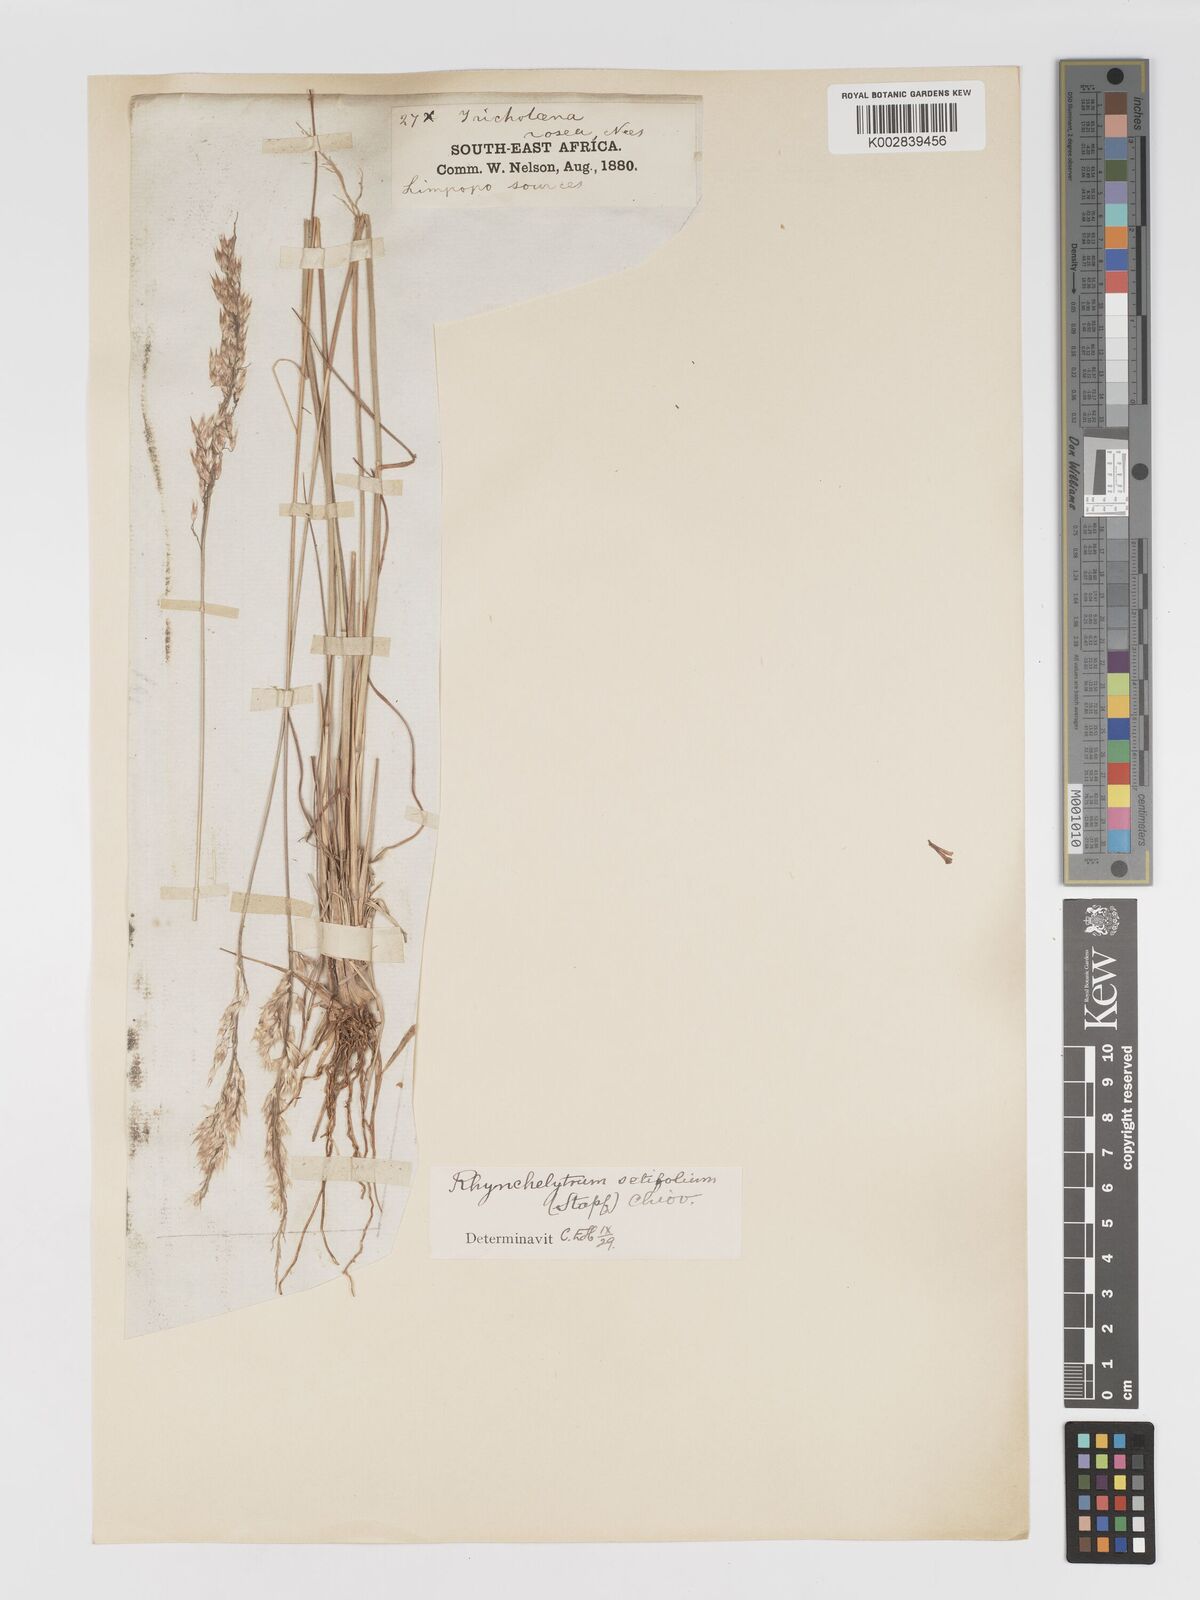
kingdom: Plantae
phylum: Tracheophyta
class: Liliopsida
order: Poales
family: Poaceae
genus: Melinis
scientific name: Melinis nerviglumis
